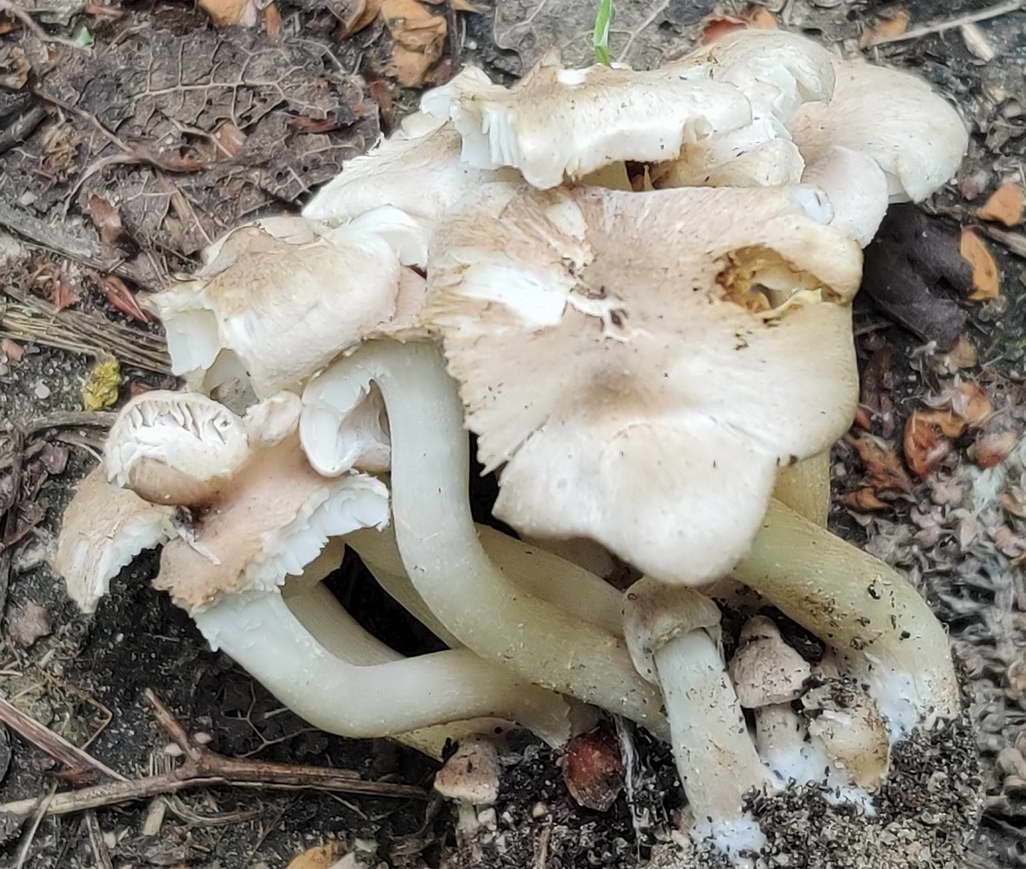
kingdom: Fungi
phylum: Basidiomycota
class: Agaricomycetes
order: Agaricales
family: Tricholomataceae
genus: Tricholoma
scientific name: Tricholoma argyraceum
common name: spids ridderhat
